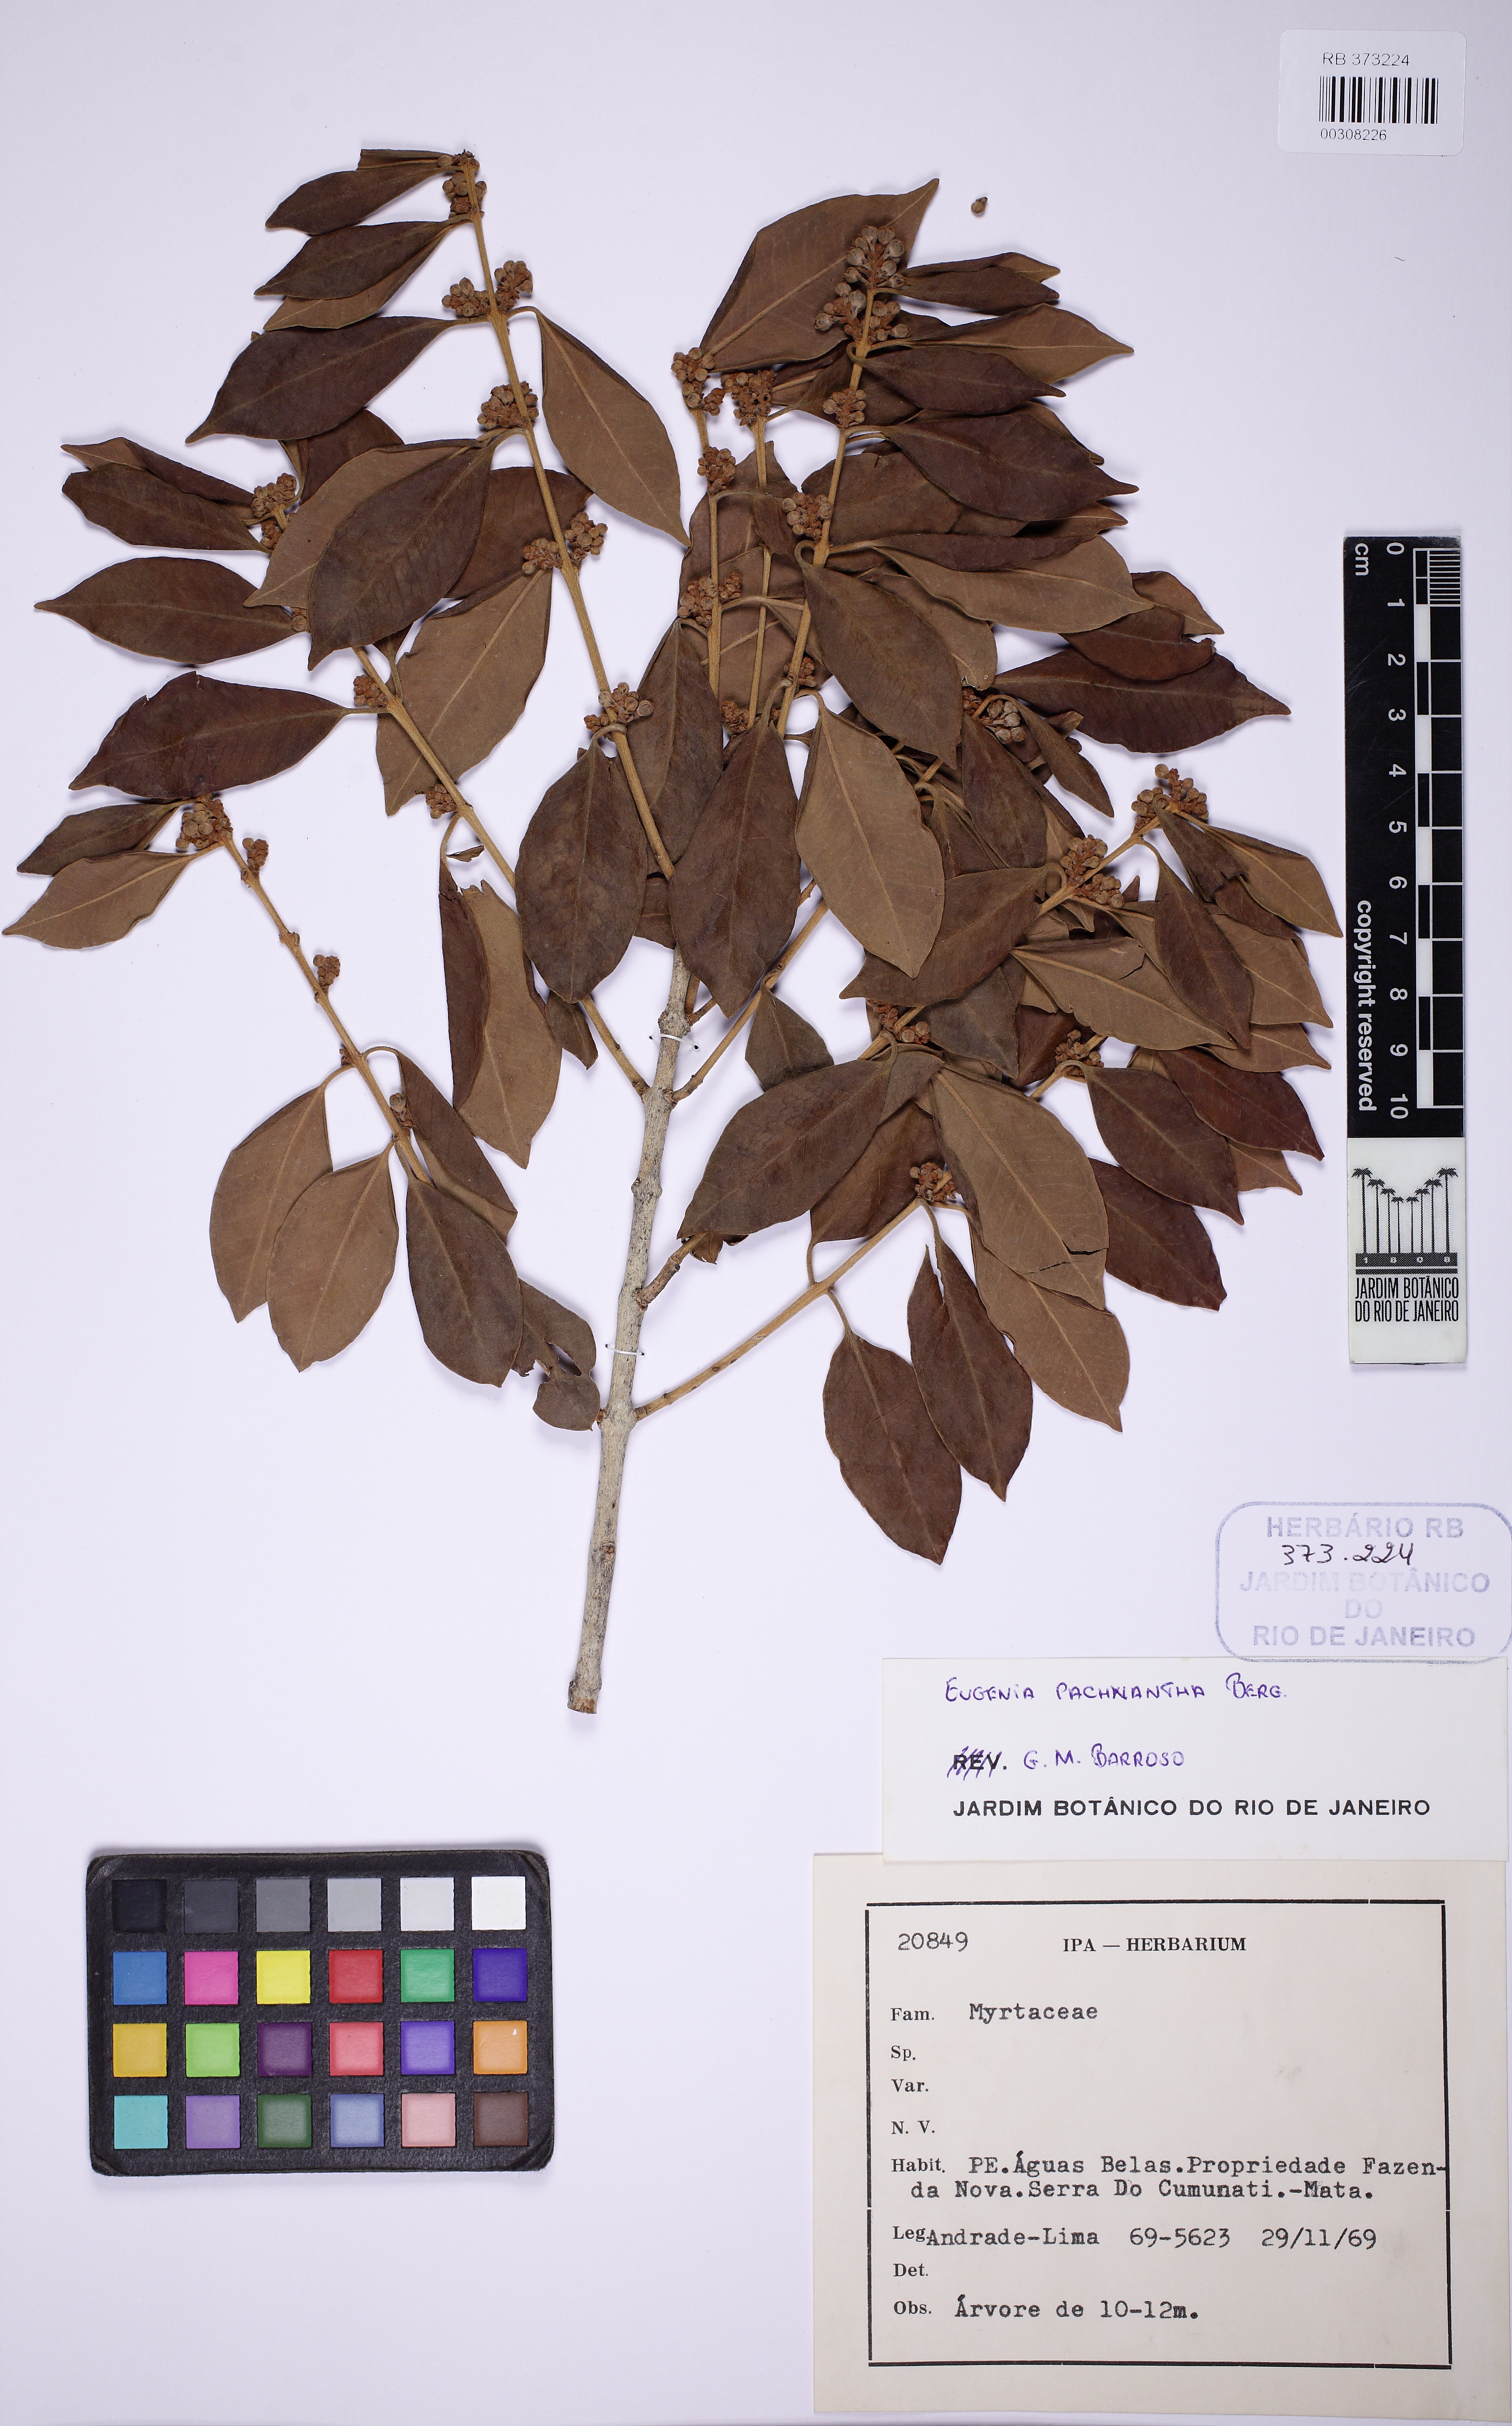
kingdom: Plantae
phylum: Tracheophyta
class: Magnoliopsida
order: Myrtales
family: Myrtaceae
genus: Eugenia
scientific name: Eugenia pachnantha
